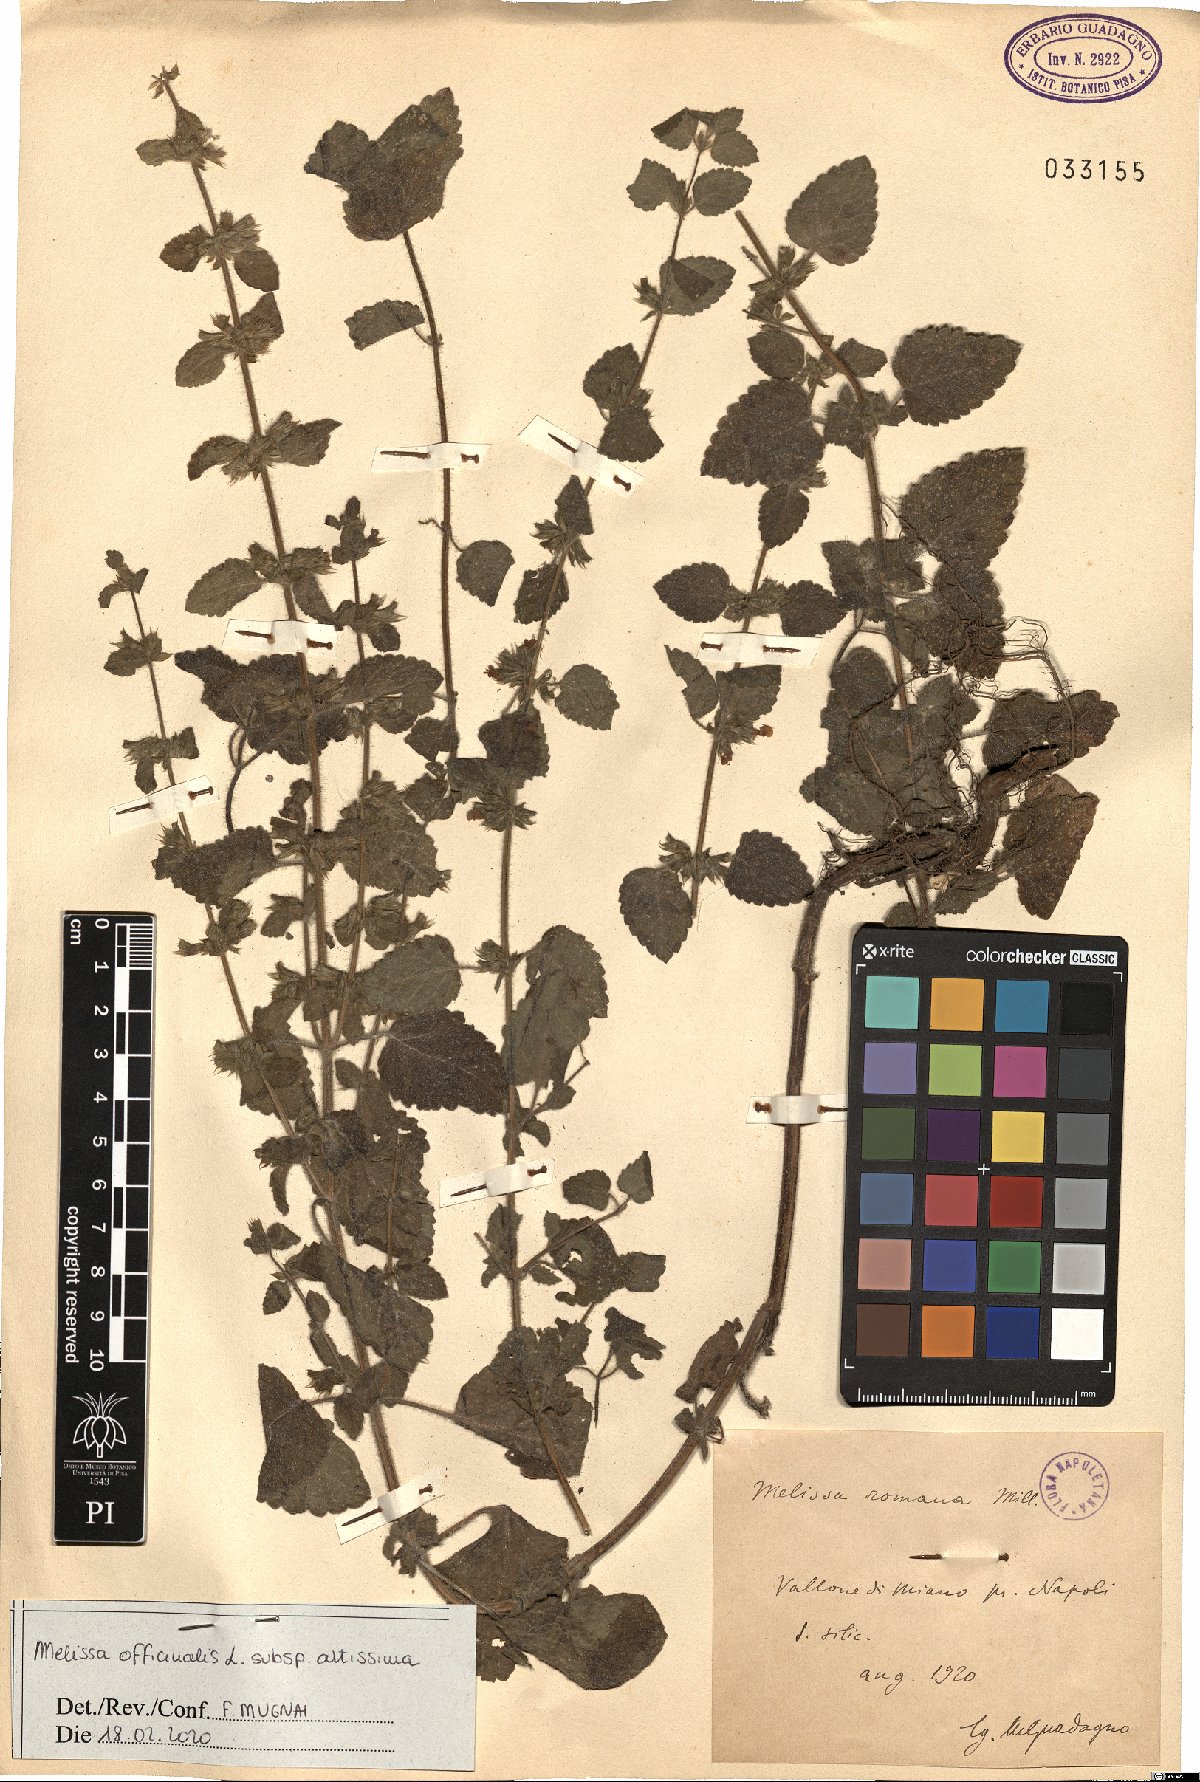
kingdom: Plantae
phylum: Tracheophyta
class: Magnoliopsida
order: Lamiales
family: Lamiaceae
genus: Melissa
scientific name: Melissa officinalis
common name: Balm
